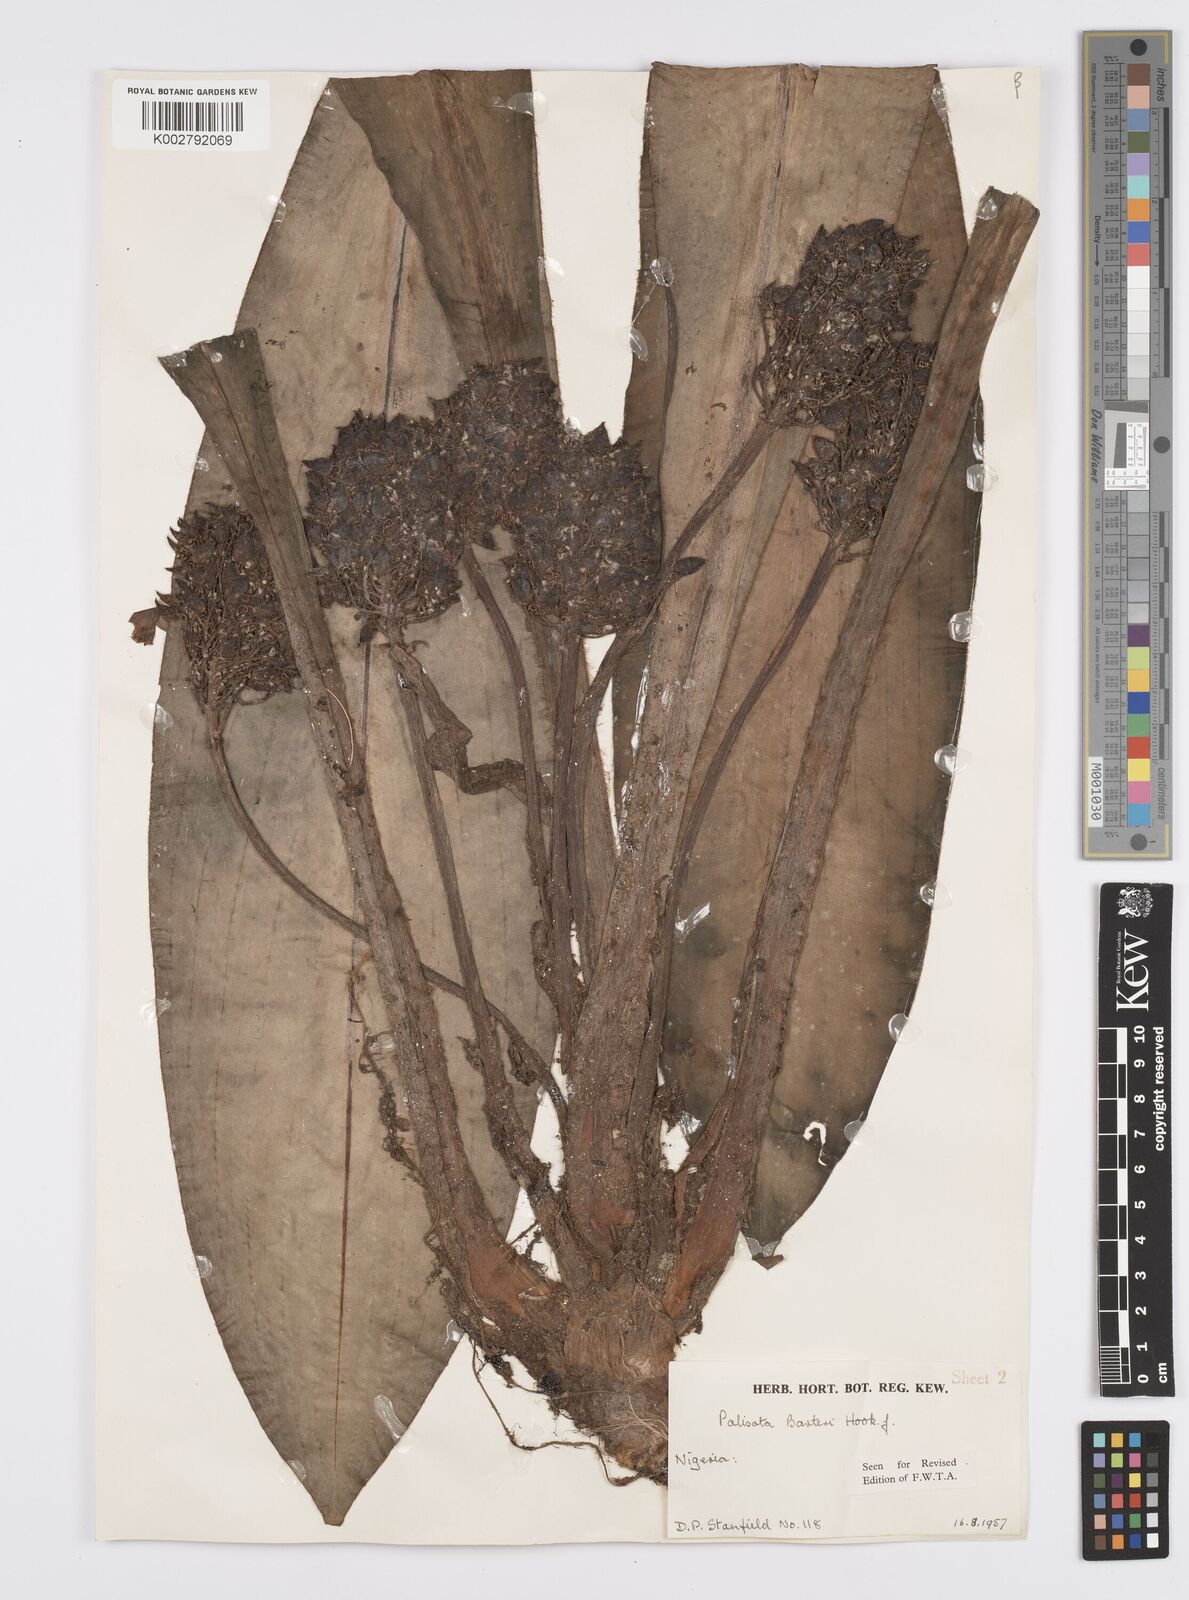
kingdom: Plantae
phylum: Tracheophyta
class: Liliopsida
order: Commelinales
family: Commelinaceae
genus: Palisota
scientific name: Palisota barteri
